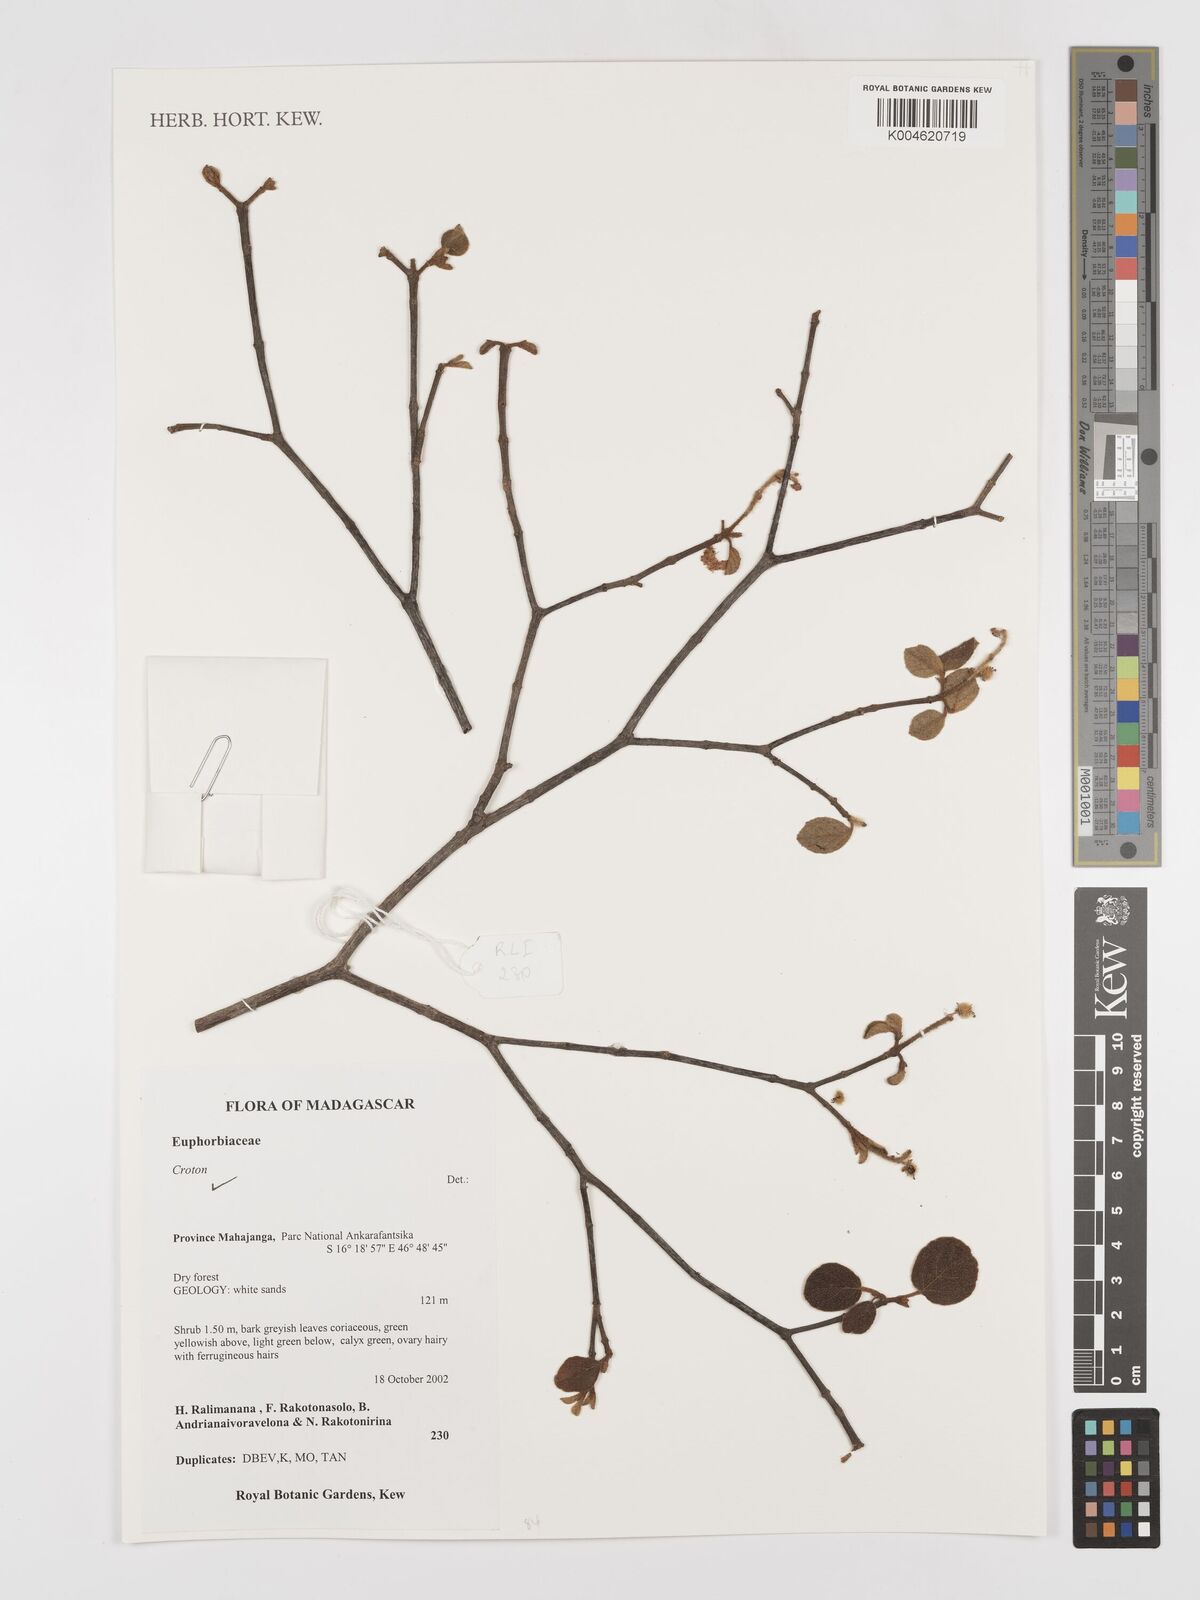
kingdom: Plantae
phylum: Tracheophyta
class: Magnoliopsida
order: Malpighiales
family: Euphorbiaceae
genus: Croton
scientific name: Croton
